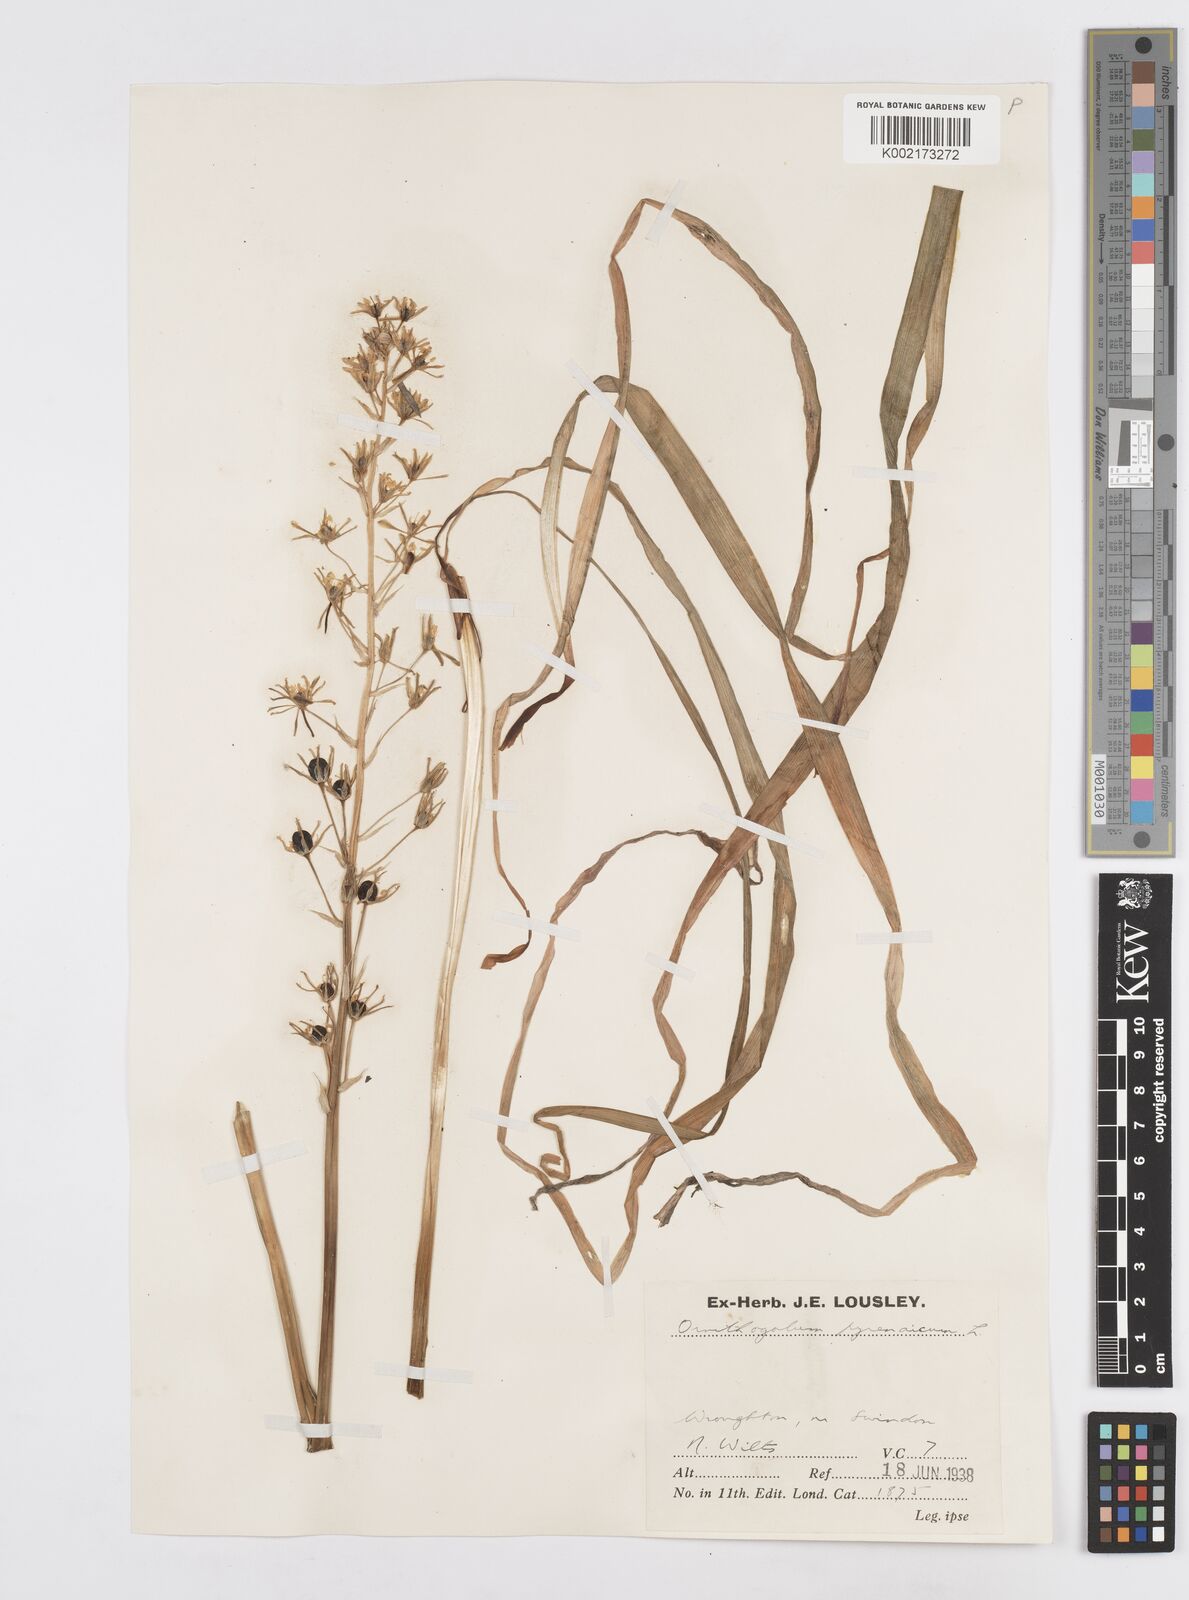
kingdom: Plantae
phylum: Tracheophyta
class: Liliopsida
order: Asparagales
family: Asparagaceae
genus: Ornithogalum
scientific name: Ornithogalum pyrenaicum
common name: Spiked star-of-bethlehem
